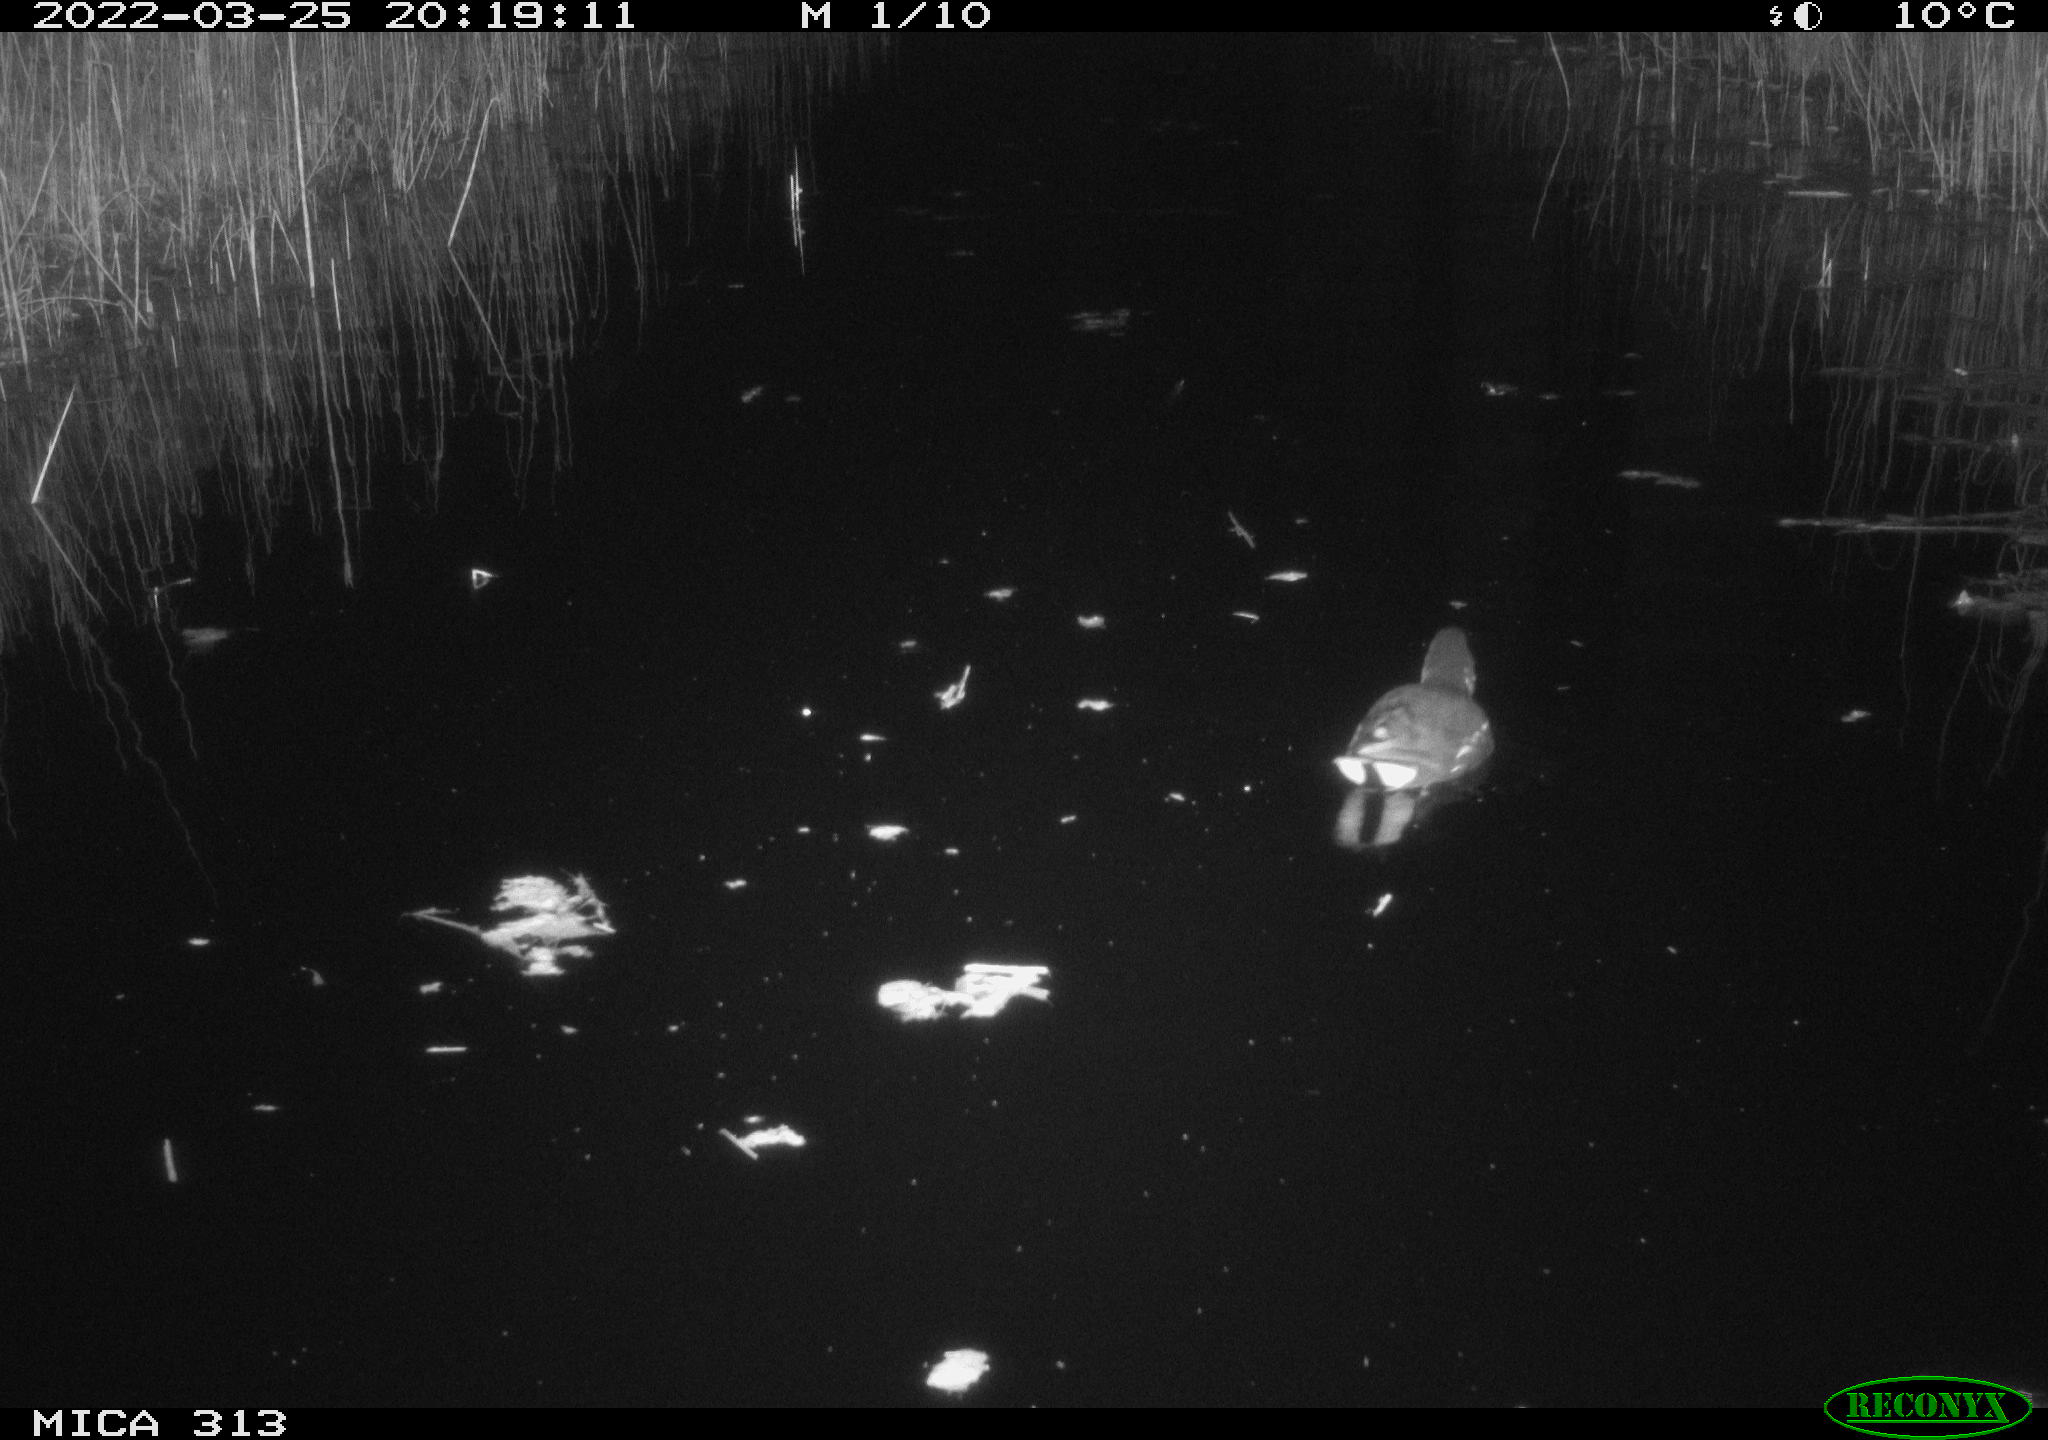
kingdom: Animalia
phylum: Chordata
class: Aves
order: Gruiformes
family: Rallidae
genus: Gallinula
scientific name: Gallinula chloropus
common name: Common moorhen
